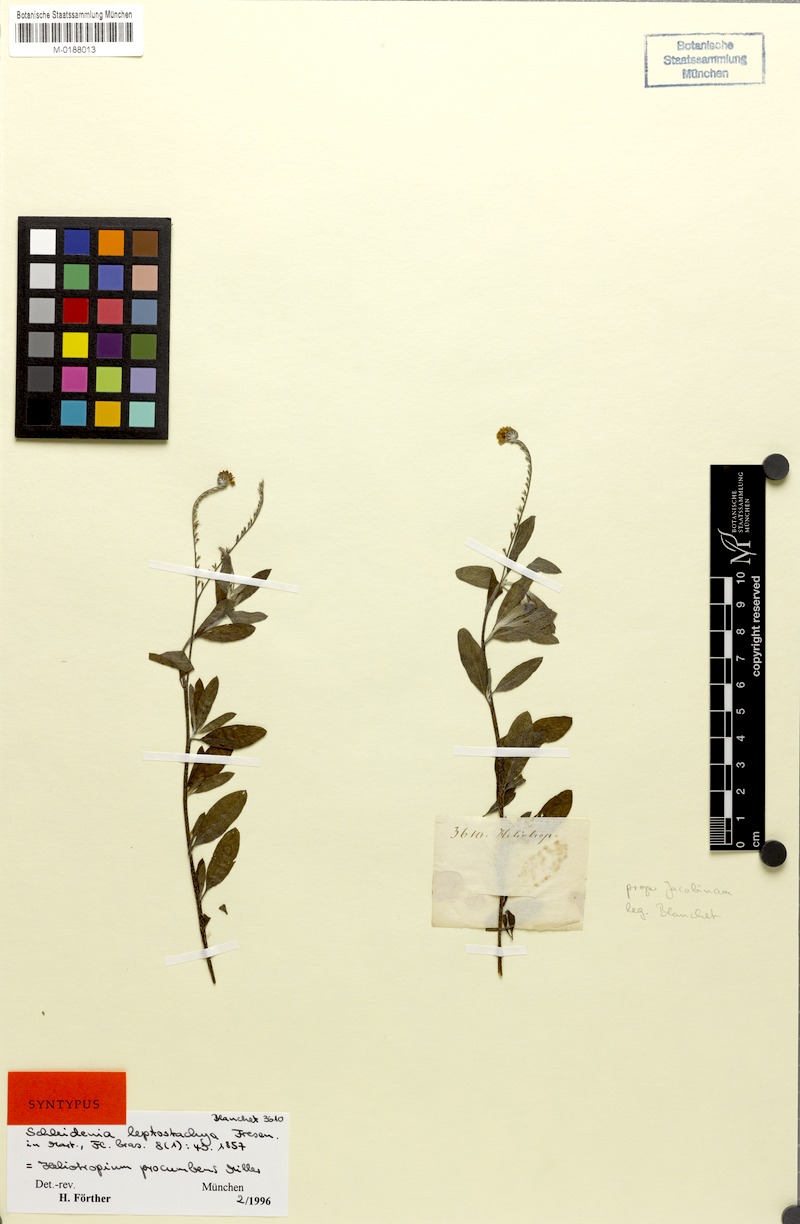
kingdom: Plantae
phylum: Tracheophyta
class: Magnoliopsida
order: Boraginales
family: Heliotropiaceae
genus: Euploca
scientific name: Euploca procumbens
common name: Fourspike heliotrope
